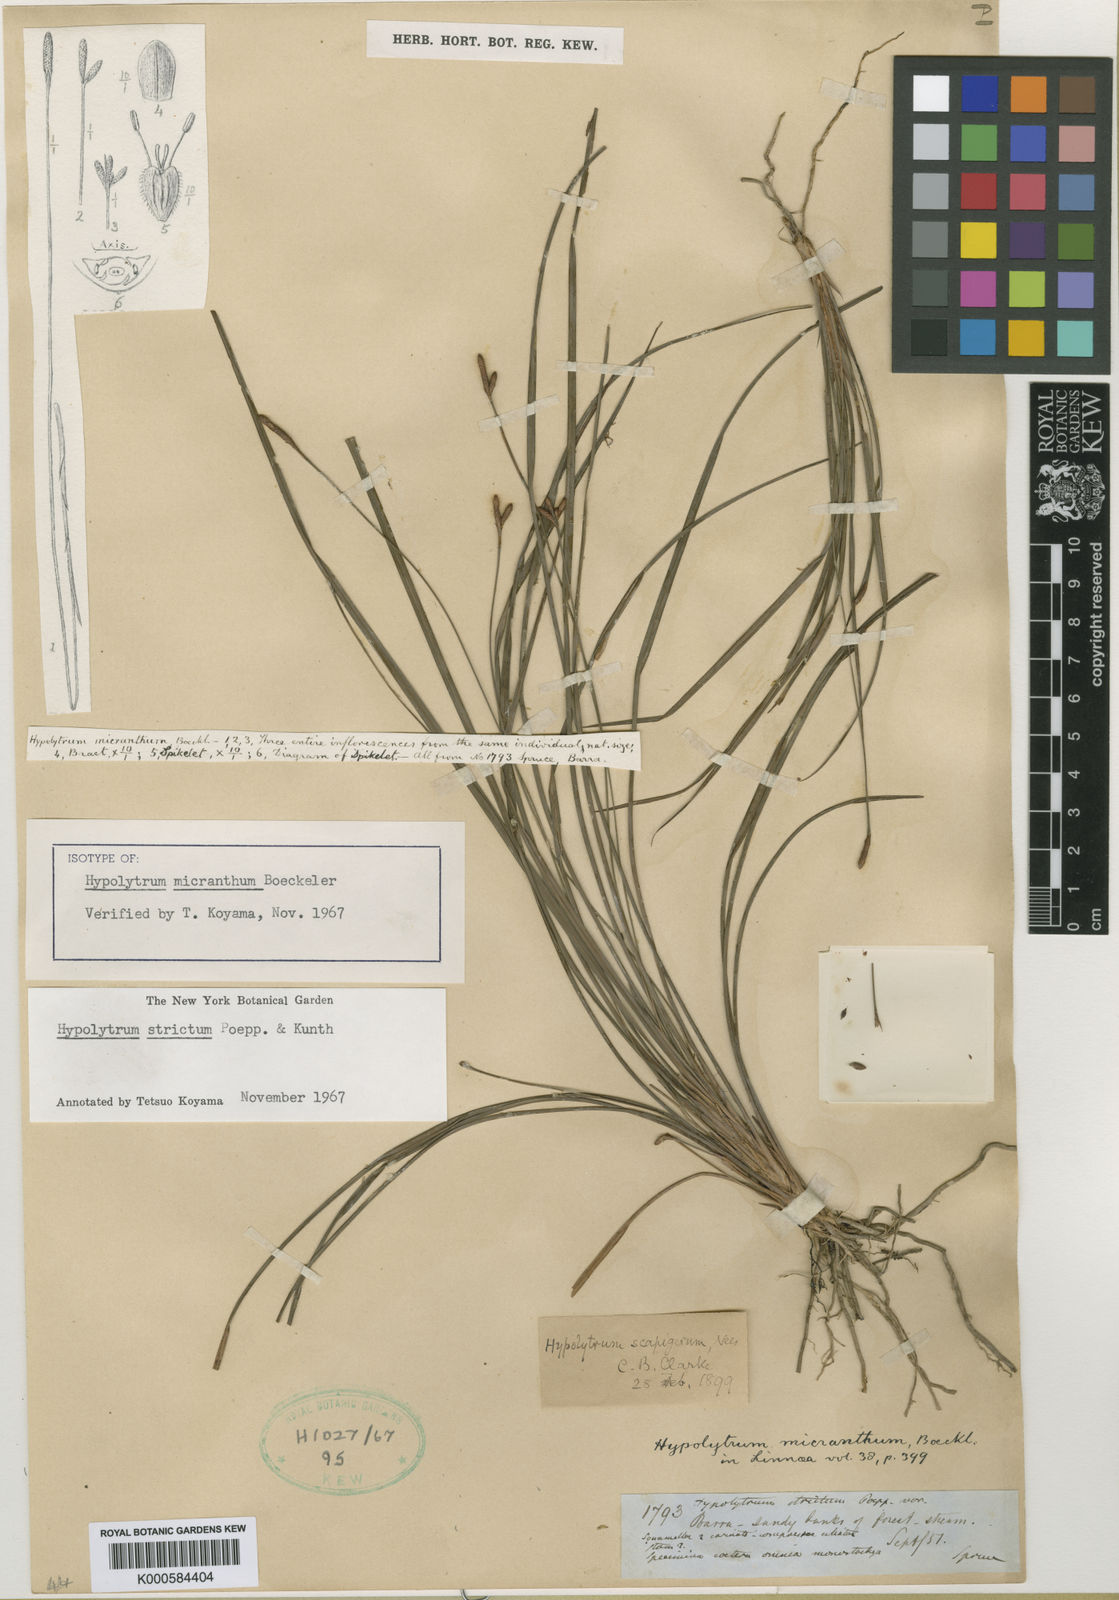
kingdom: Plantae
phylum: Tracheophyta
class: Liliopsida
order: Poales
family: Cyperaceae
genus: Hypolytrum
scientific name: Hypolytrum strictum
